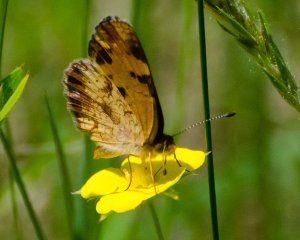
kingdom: Animalia
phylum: Arthropoda
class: Insecta
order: Lepidoptera
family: Nymphalidae
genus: Phyciodes
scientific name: Phyciodes tharos
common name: Pearl Crescent
